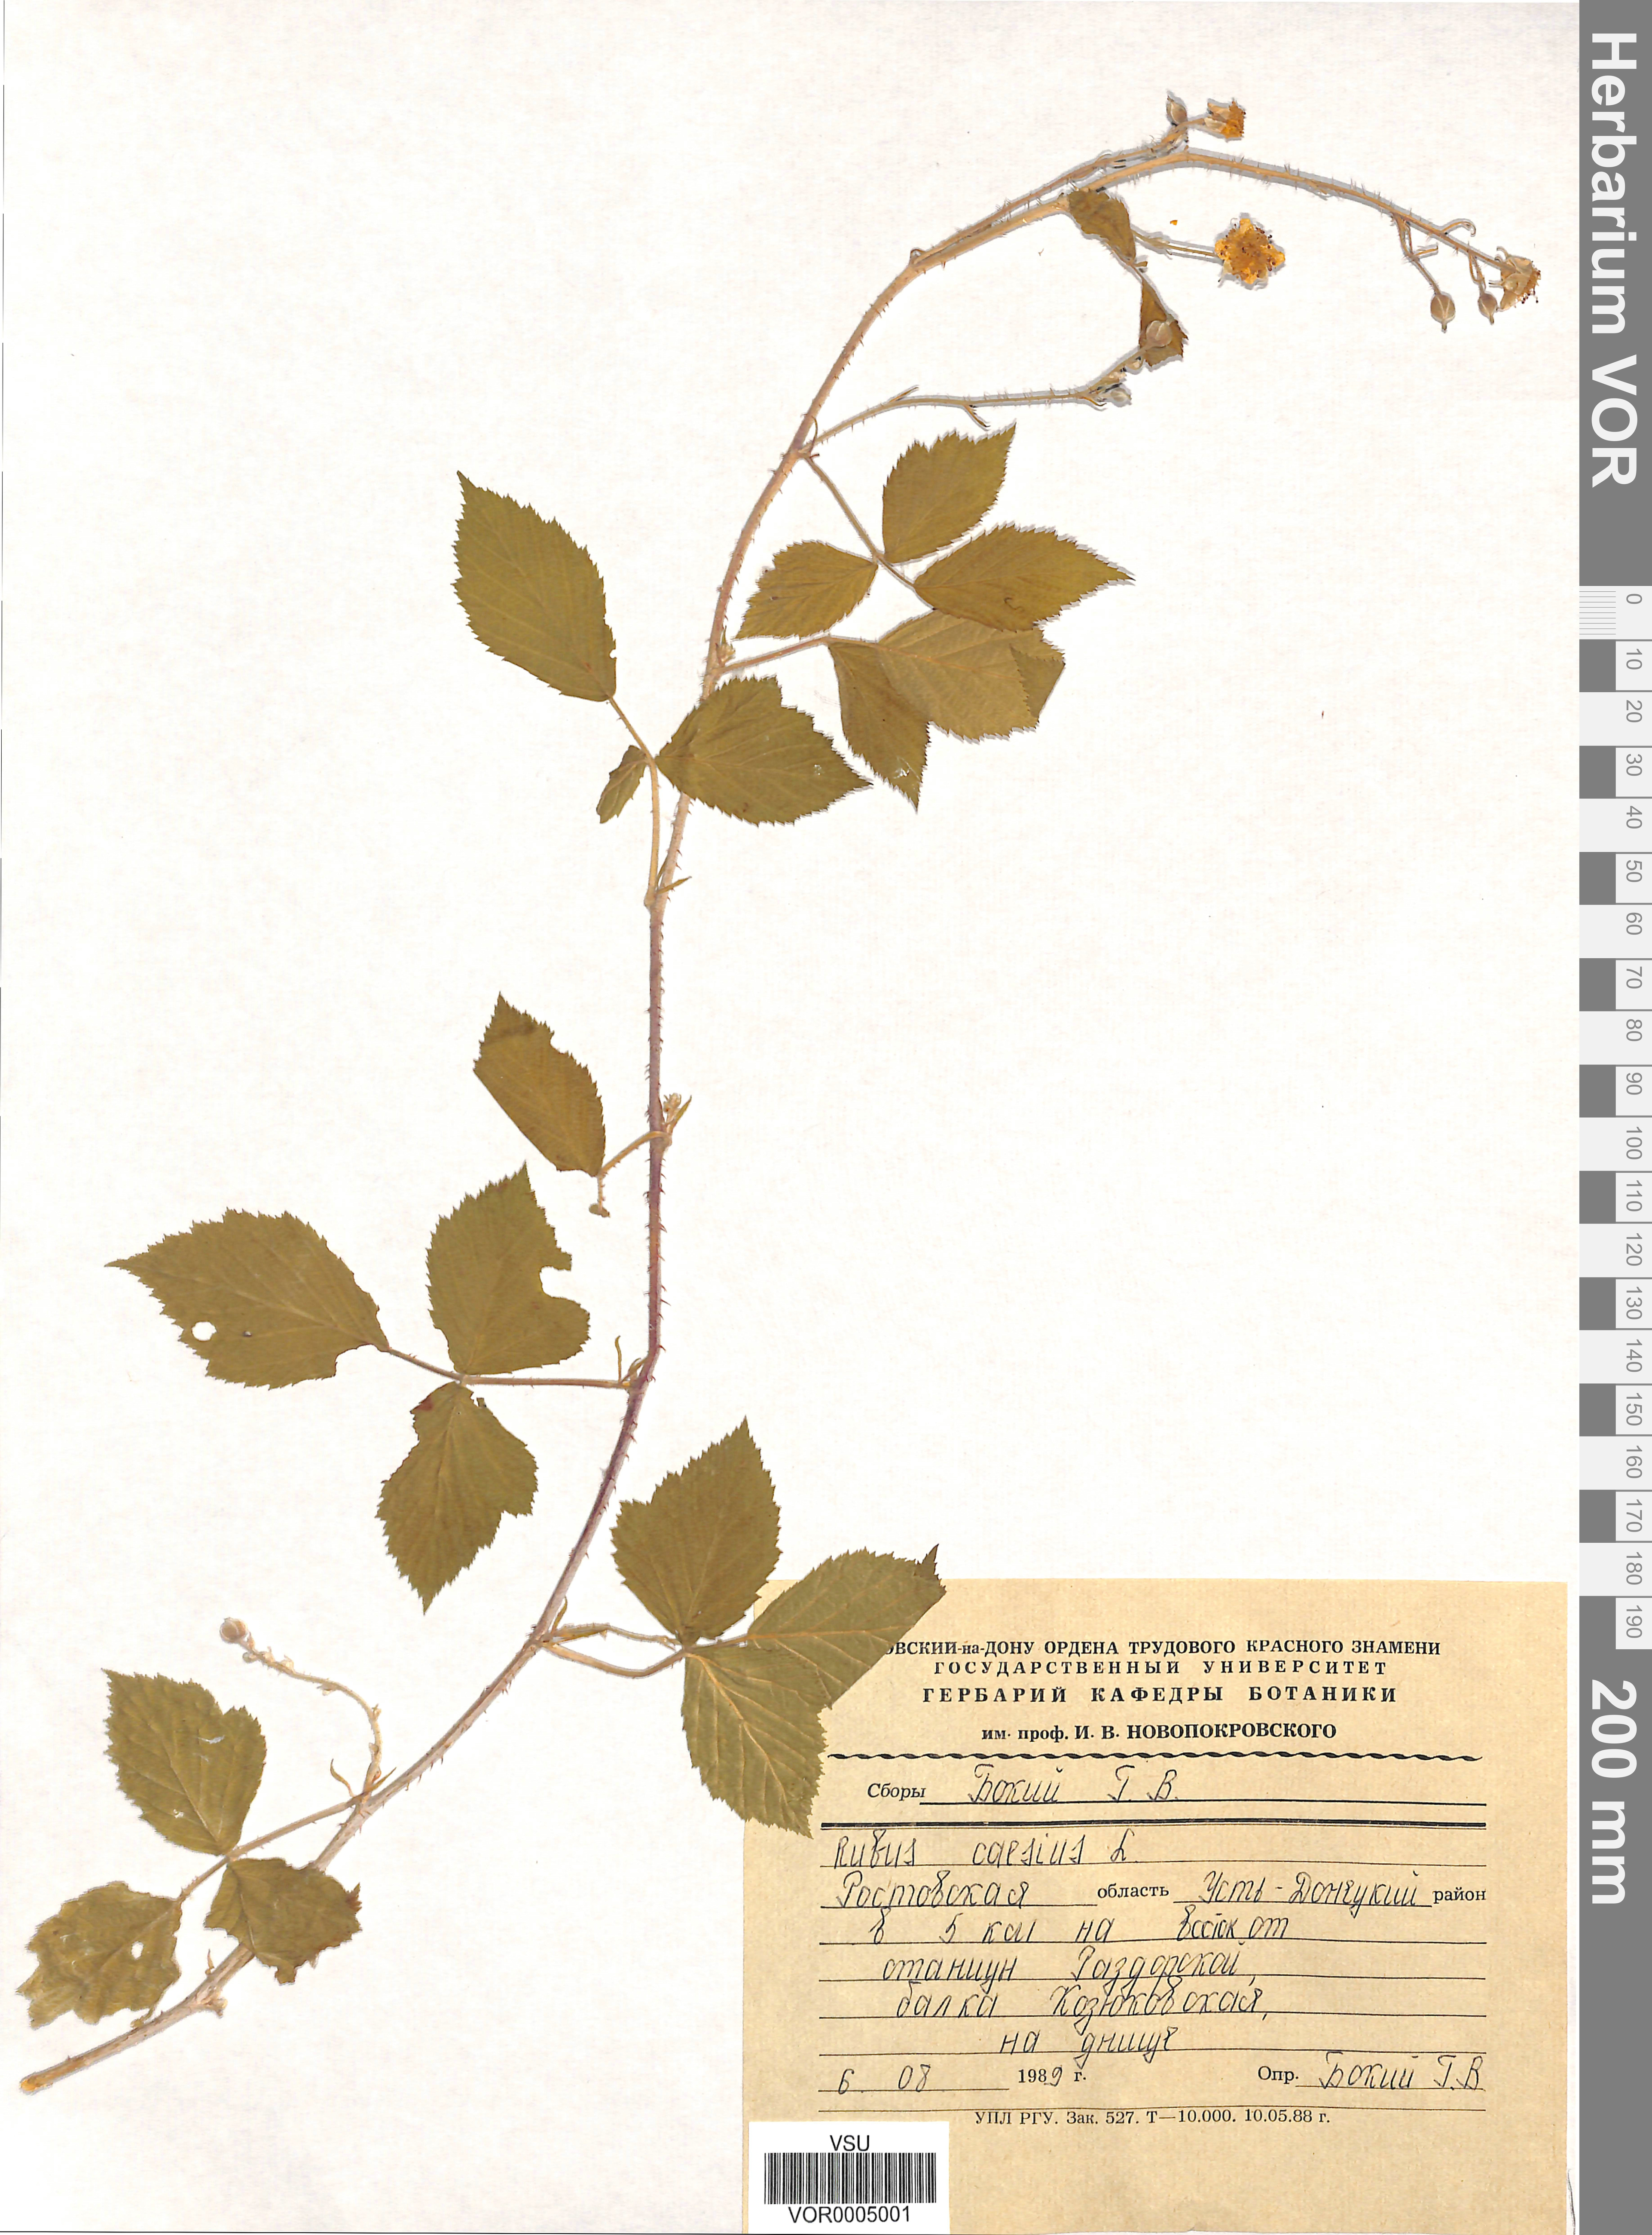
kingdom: Plantae
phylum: Tracheophyta
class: Magnoliopsida
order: Rosales
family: Rosaceae
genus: Rubus
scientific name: Rubus caesius
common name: Dewberry
